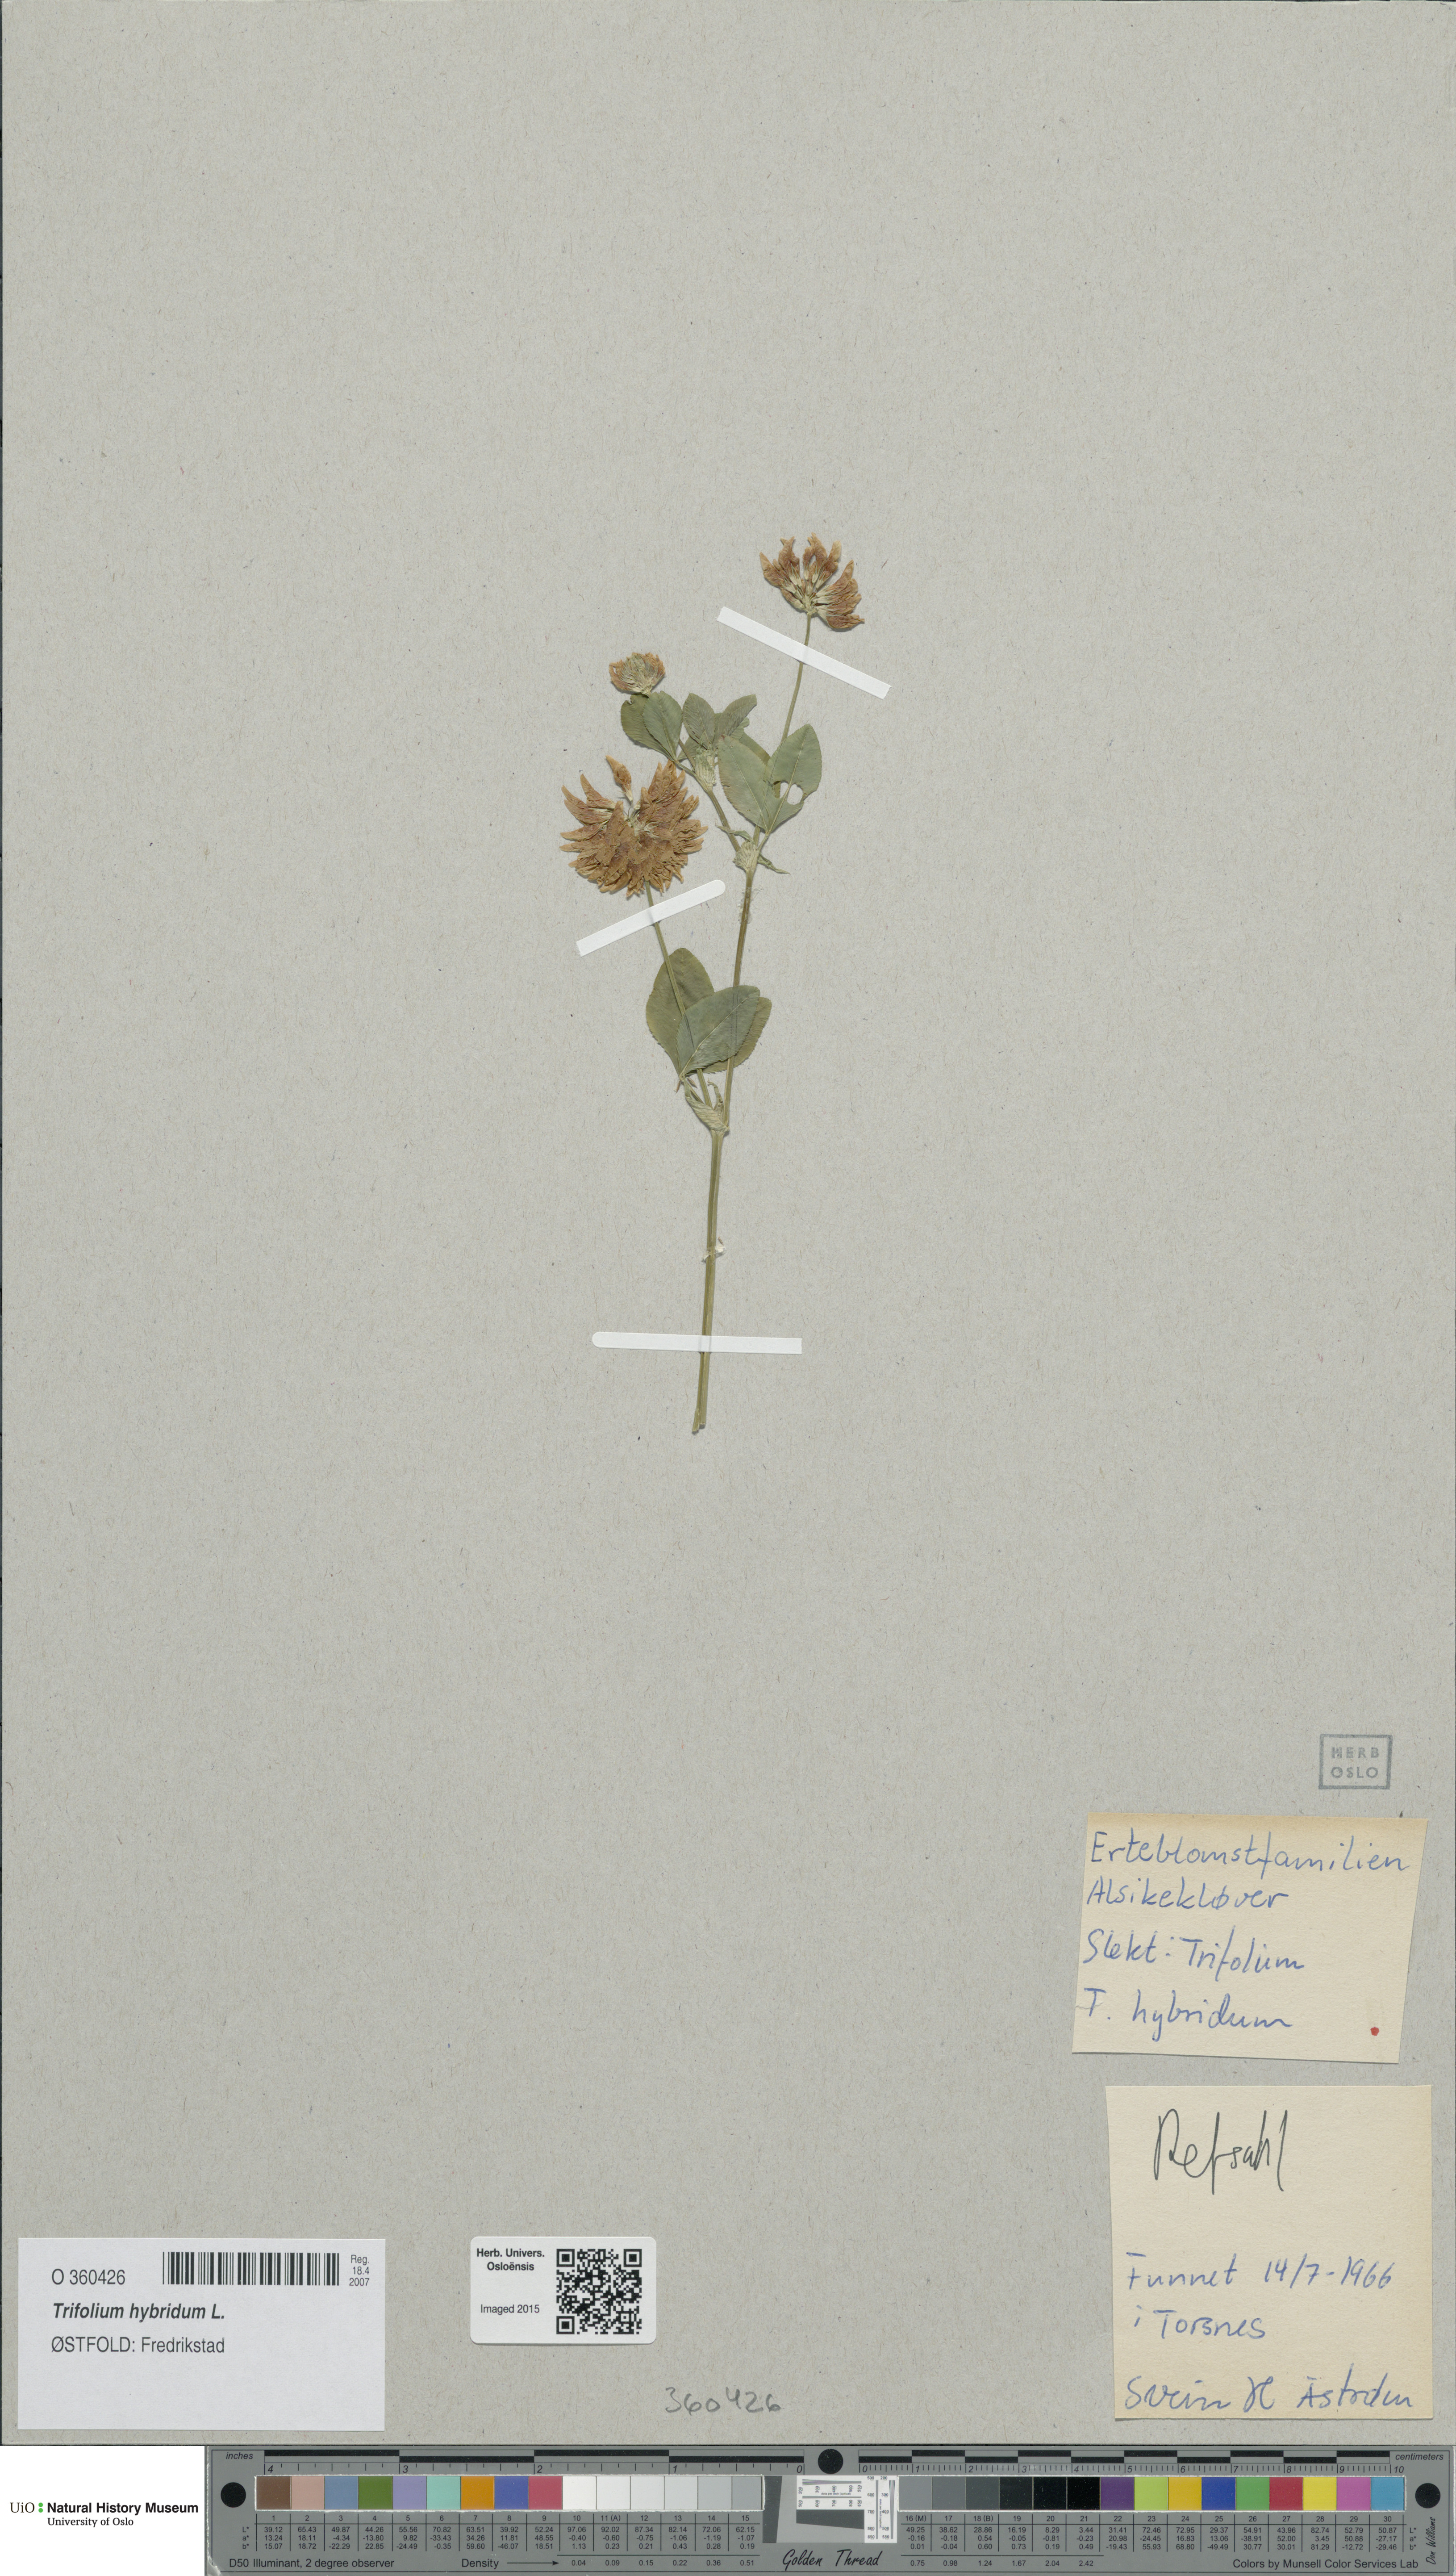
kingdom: Plantae
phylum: Tracheophyta
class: Magnoliopsida
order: Fabales
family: Fabaceae
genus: Trifolium
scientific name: Trifolium hybridum
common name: Alsike clover
